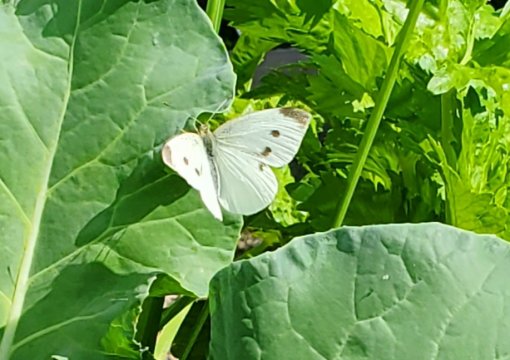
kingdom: Animalia
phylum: Arthropoda
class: Insecta
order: Lepidoptera
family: Pieridae
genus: Pieris
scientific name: Pieris rapae
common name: Cabbage White
